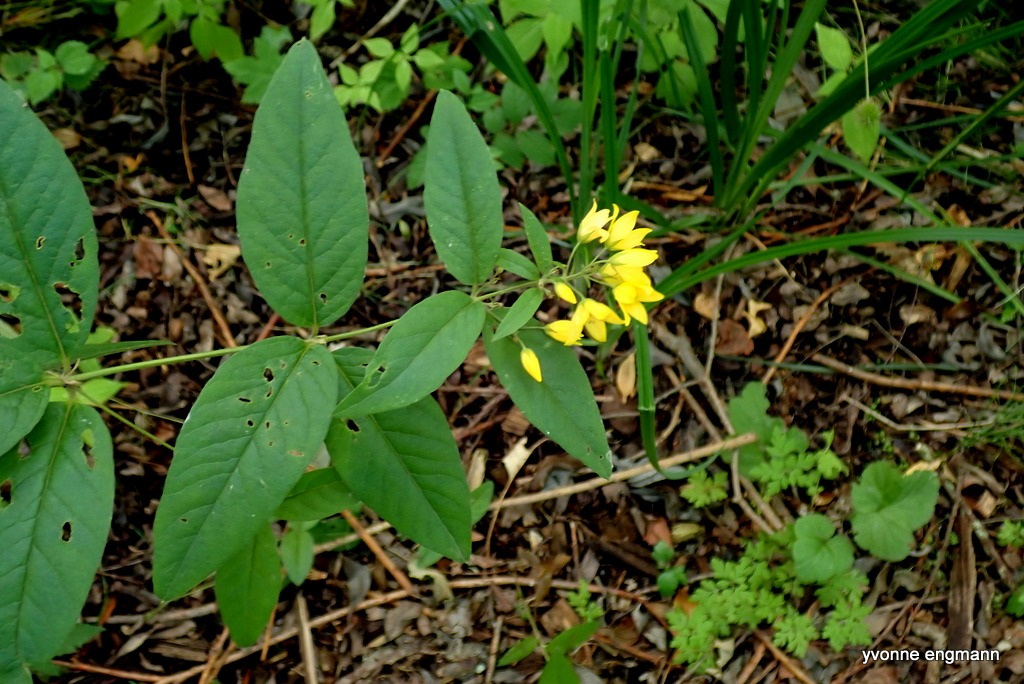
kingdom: Plantae
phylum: Tracheophyta
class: Magnoliopsida
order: Ericales
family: Primulaceae
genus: Lysimachia
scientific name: Lysimachia vulgaris
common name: Almindelig fredløs
